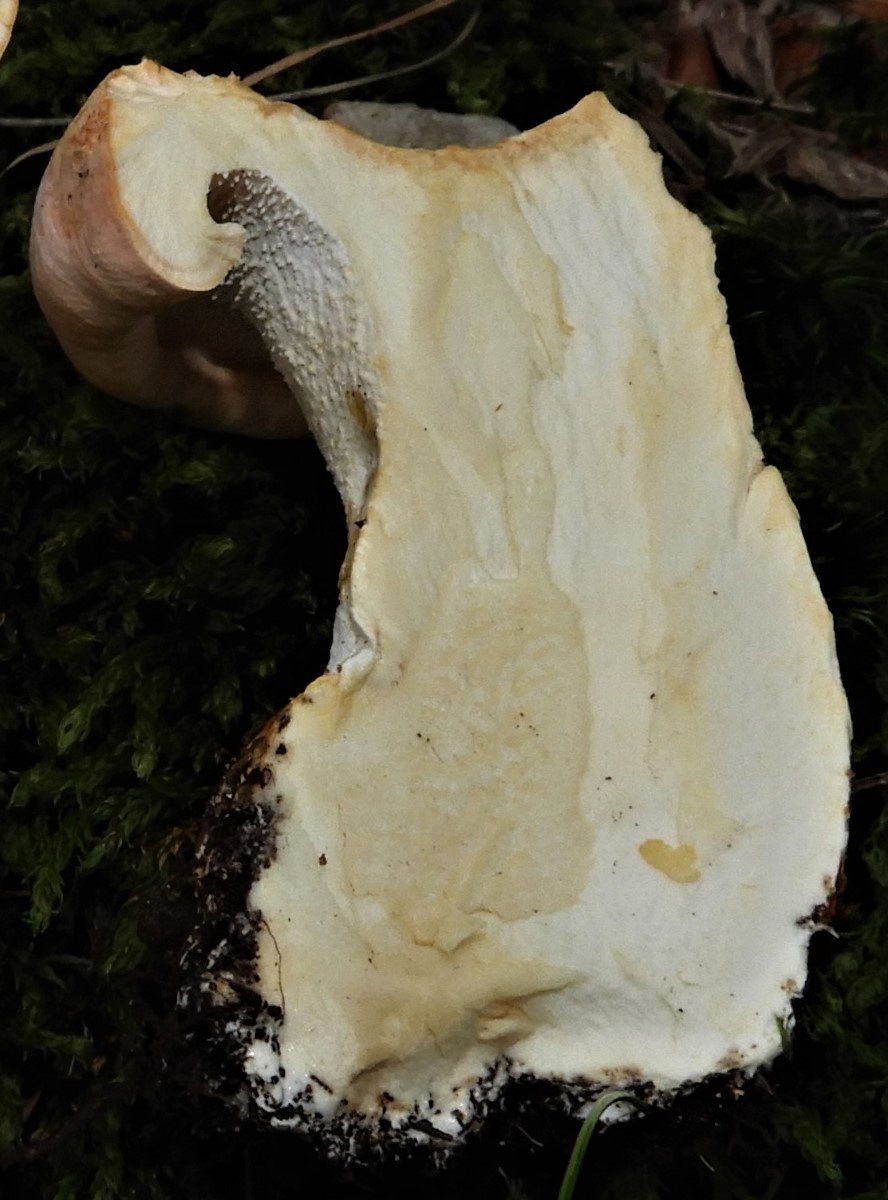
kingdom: Fungi
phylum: Basidiomycota
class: Agaricomycetes
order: Cantharellales
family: Hydnaceae
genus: Hydnum
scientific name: Hydnum
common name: pigsvamp
